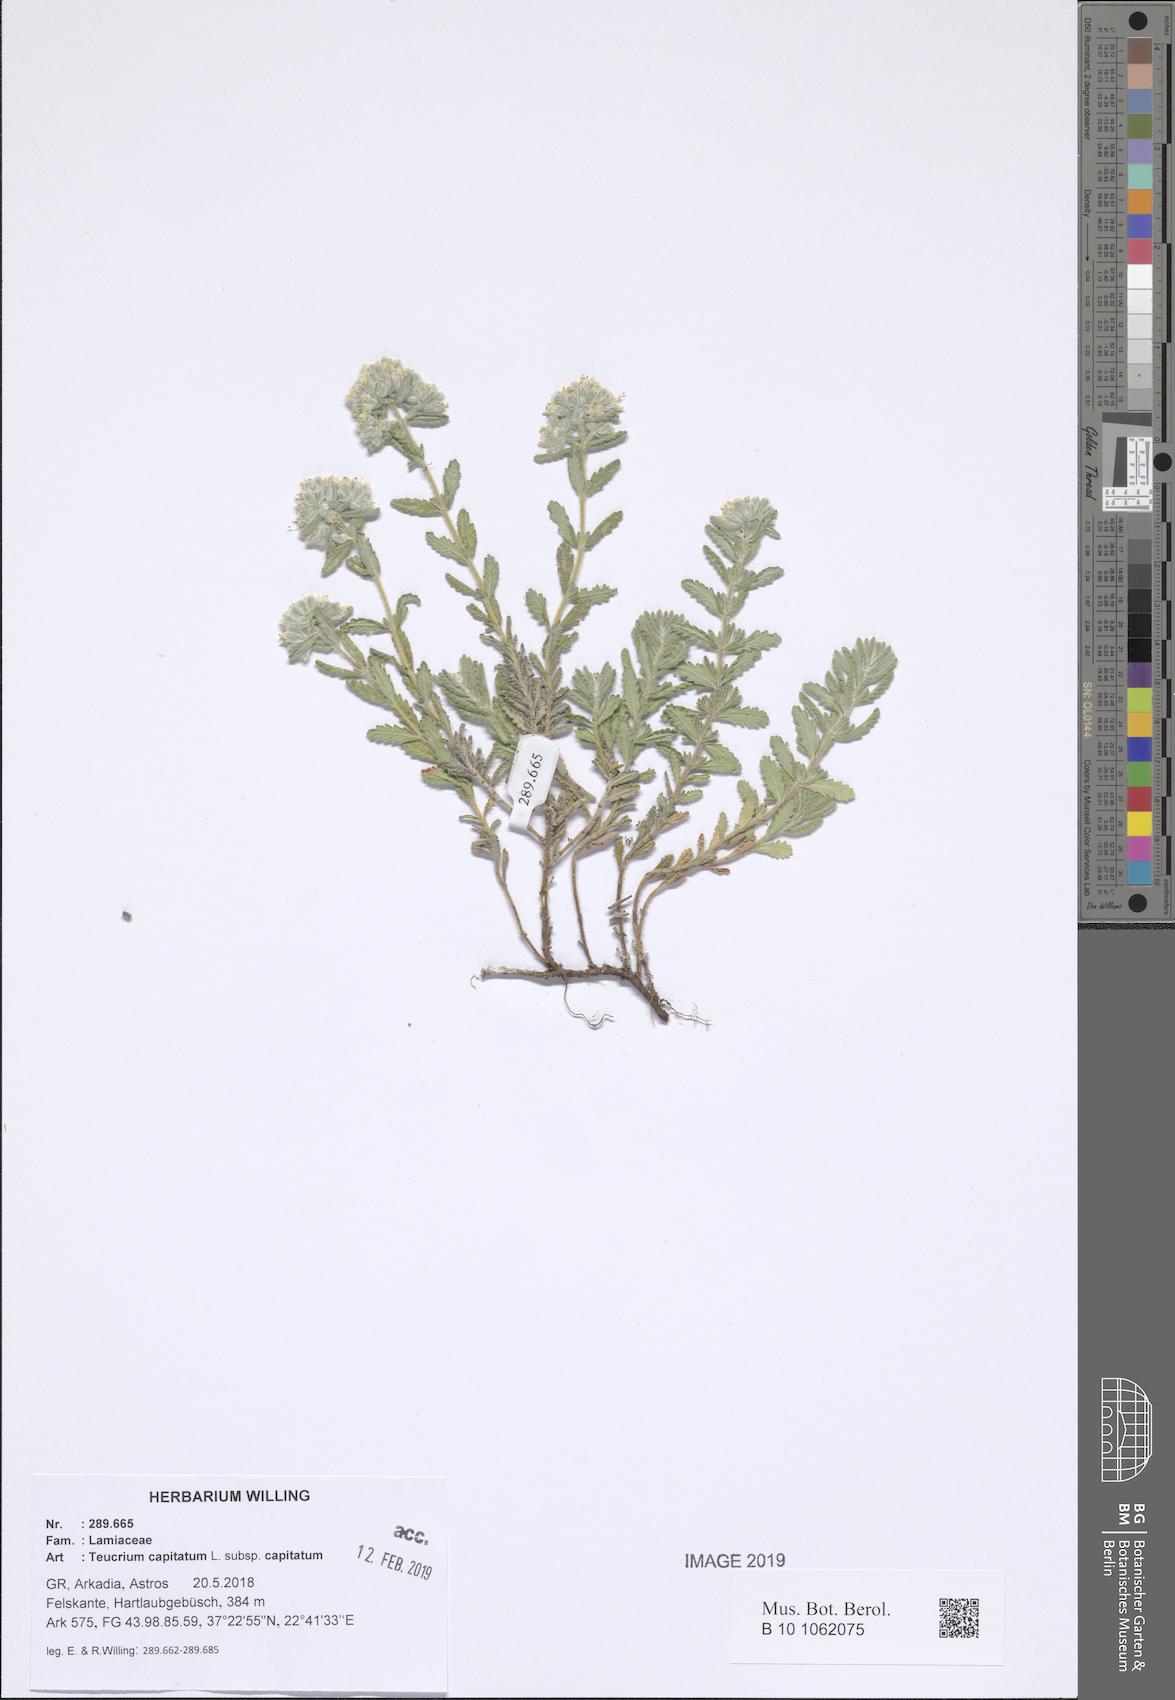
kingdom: Plantae
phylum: Tracheophyta
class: Magnoliopsida
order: Lamiales
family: Lamiaceae
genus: Teucrium
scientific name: Teucrium capitatum
